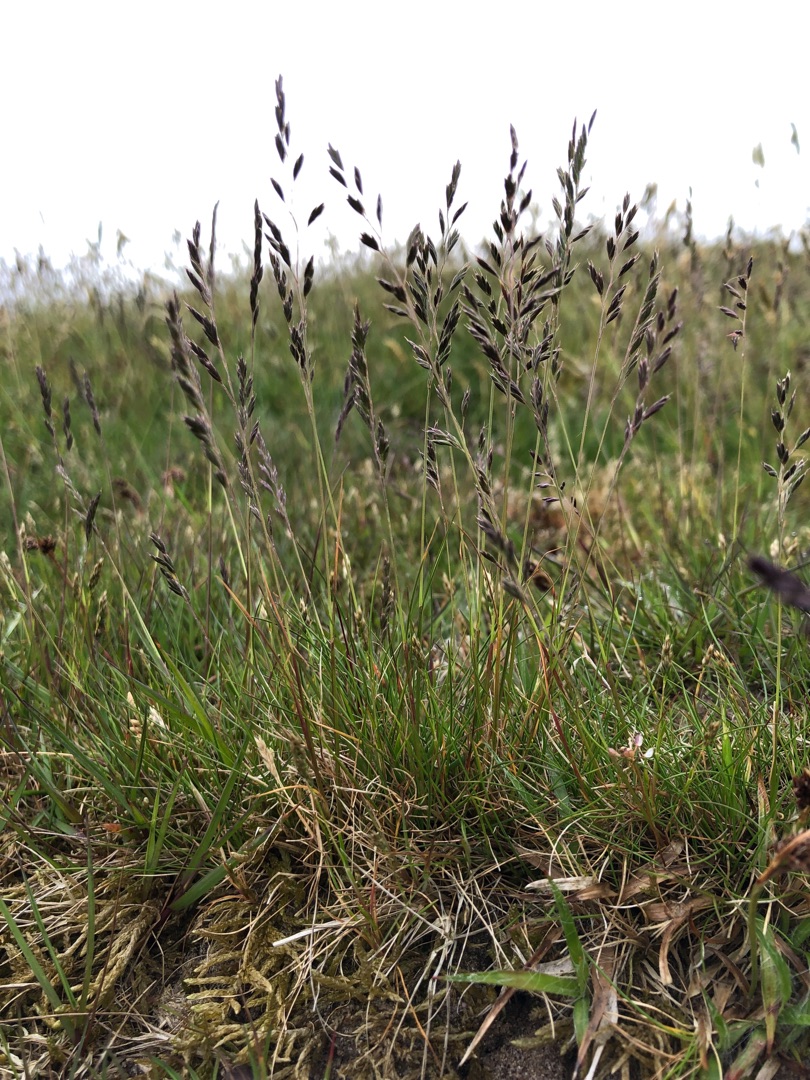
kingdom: Plantae
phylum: Tracheophyta
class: Liliopsida
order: Poales
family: Poaceae
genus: Festuca
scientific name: Festuca ovina
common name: Fåre-svingel
